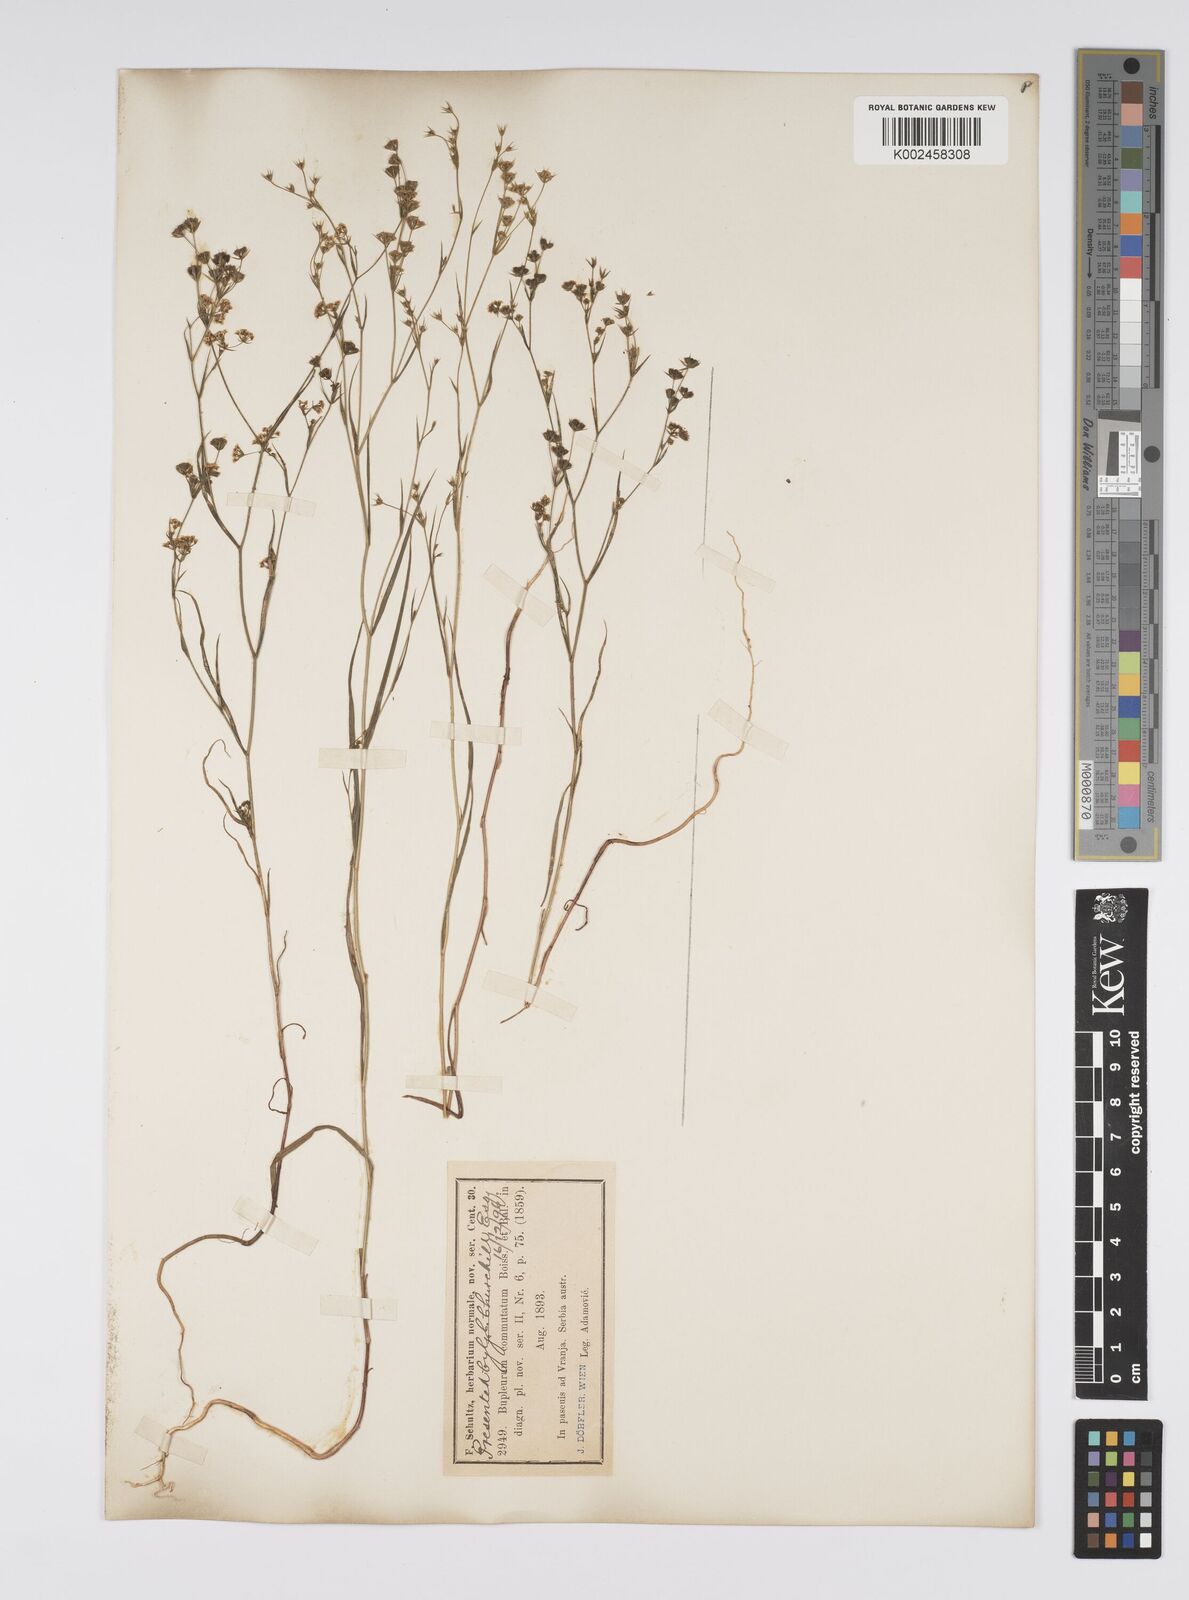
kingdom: Plantae
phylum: Tracheophyta
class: Magnoliopsida
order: Apiales
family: Apiaceae
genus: Bupleurum
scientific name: Bupleurum commutatum
